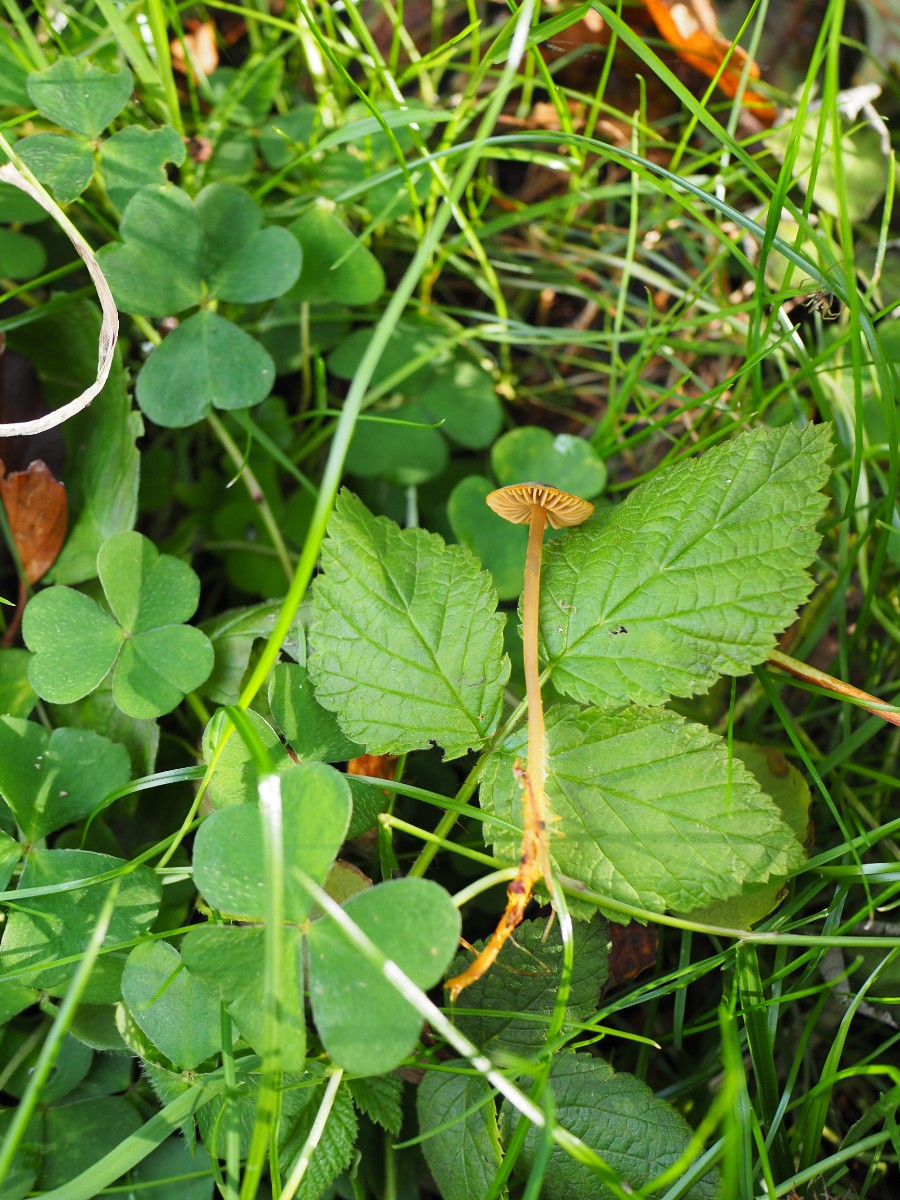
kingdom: Fungi
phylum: Basidiomycota
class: Agaricomycetes
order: Agaricales
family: Mycenaceae
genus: Mycena
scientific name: Mycena aurantiomarginata
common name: orangeægget huesvamp
